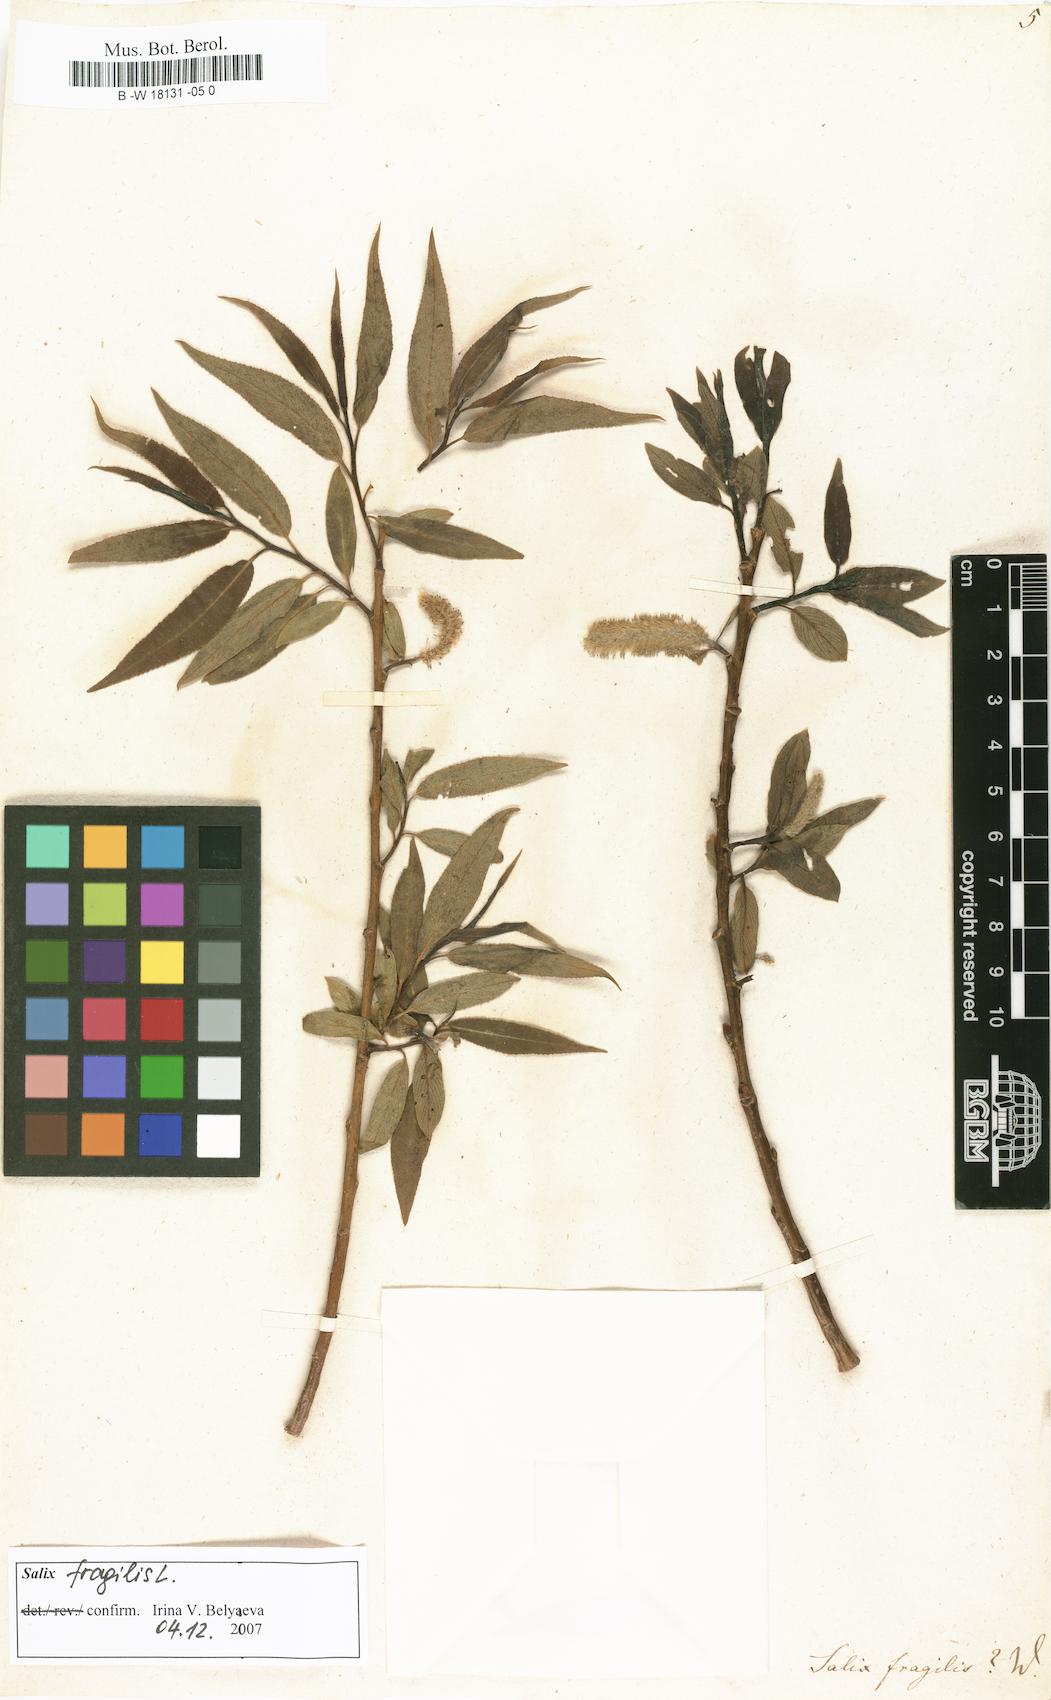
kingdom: Plantae
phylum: Tracheophyta
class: Magnoliopsida
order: Malpighiales
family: Salicaceae
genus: Salix
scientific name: Salix fragilis
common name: Crack willow
